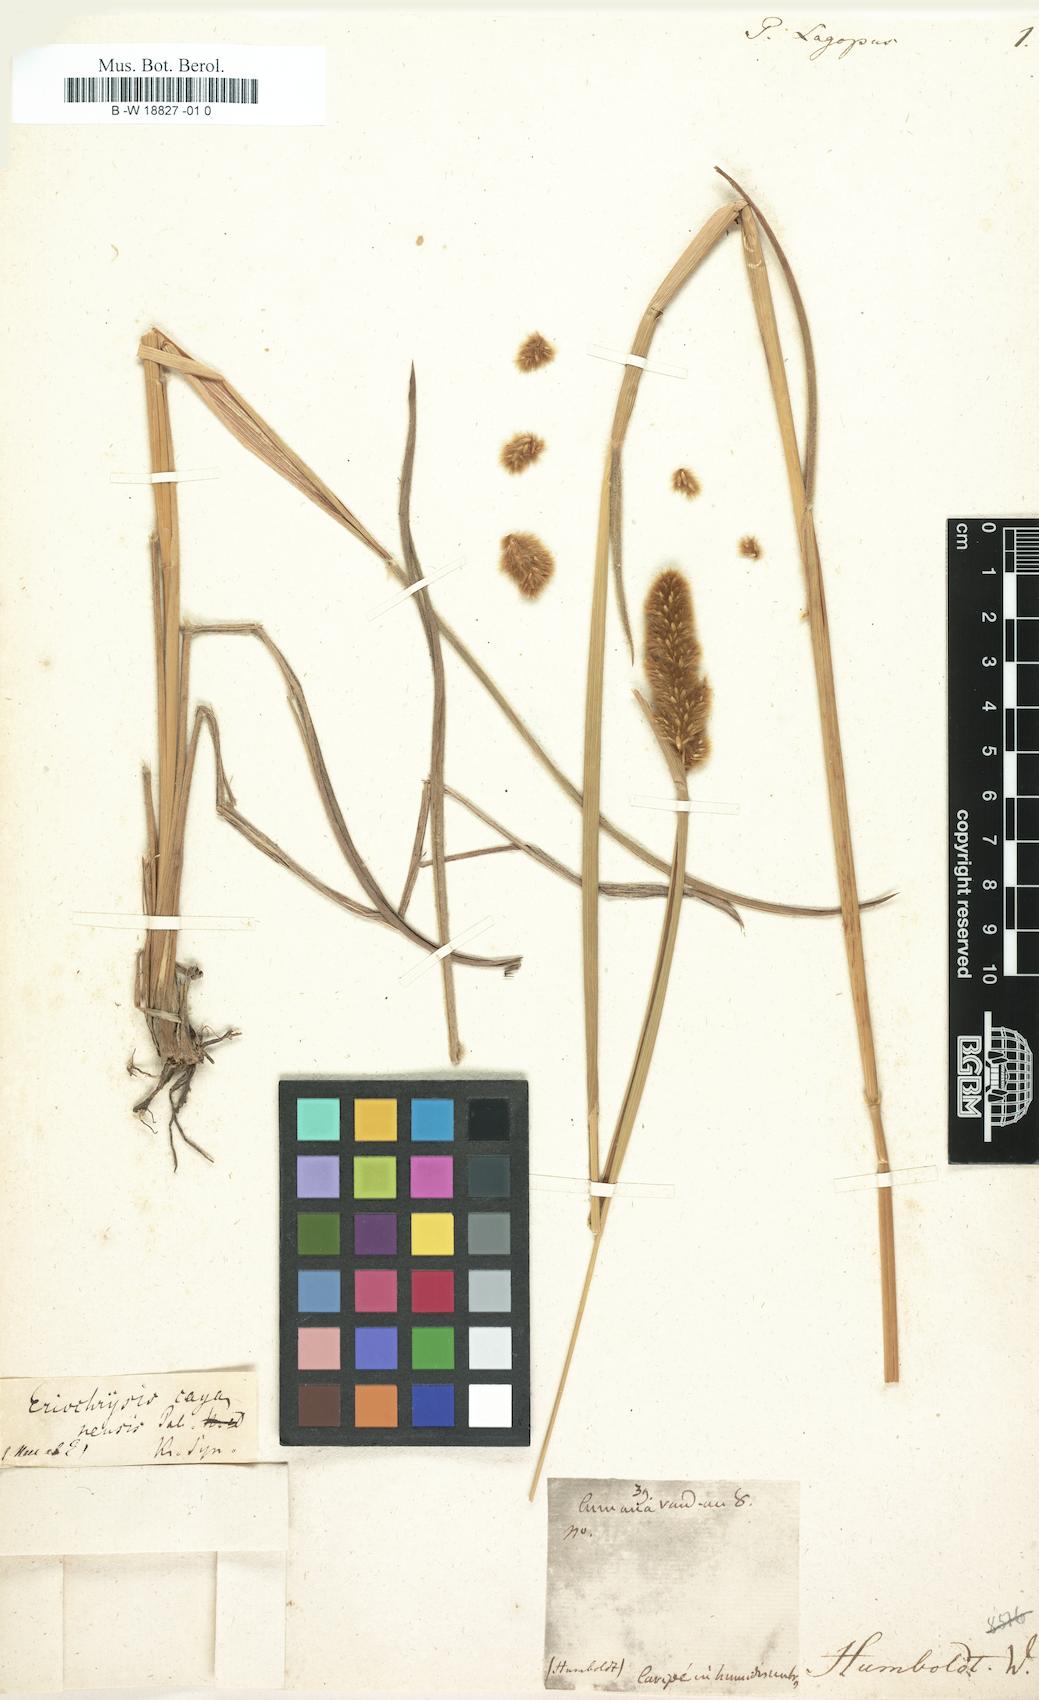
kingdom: Plantae
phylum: Tracheophyta
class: Liliopsida
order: Poales
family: Poaceae
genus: Eriochrysis
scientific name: Eriochrysis cayennensis
